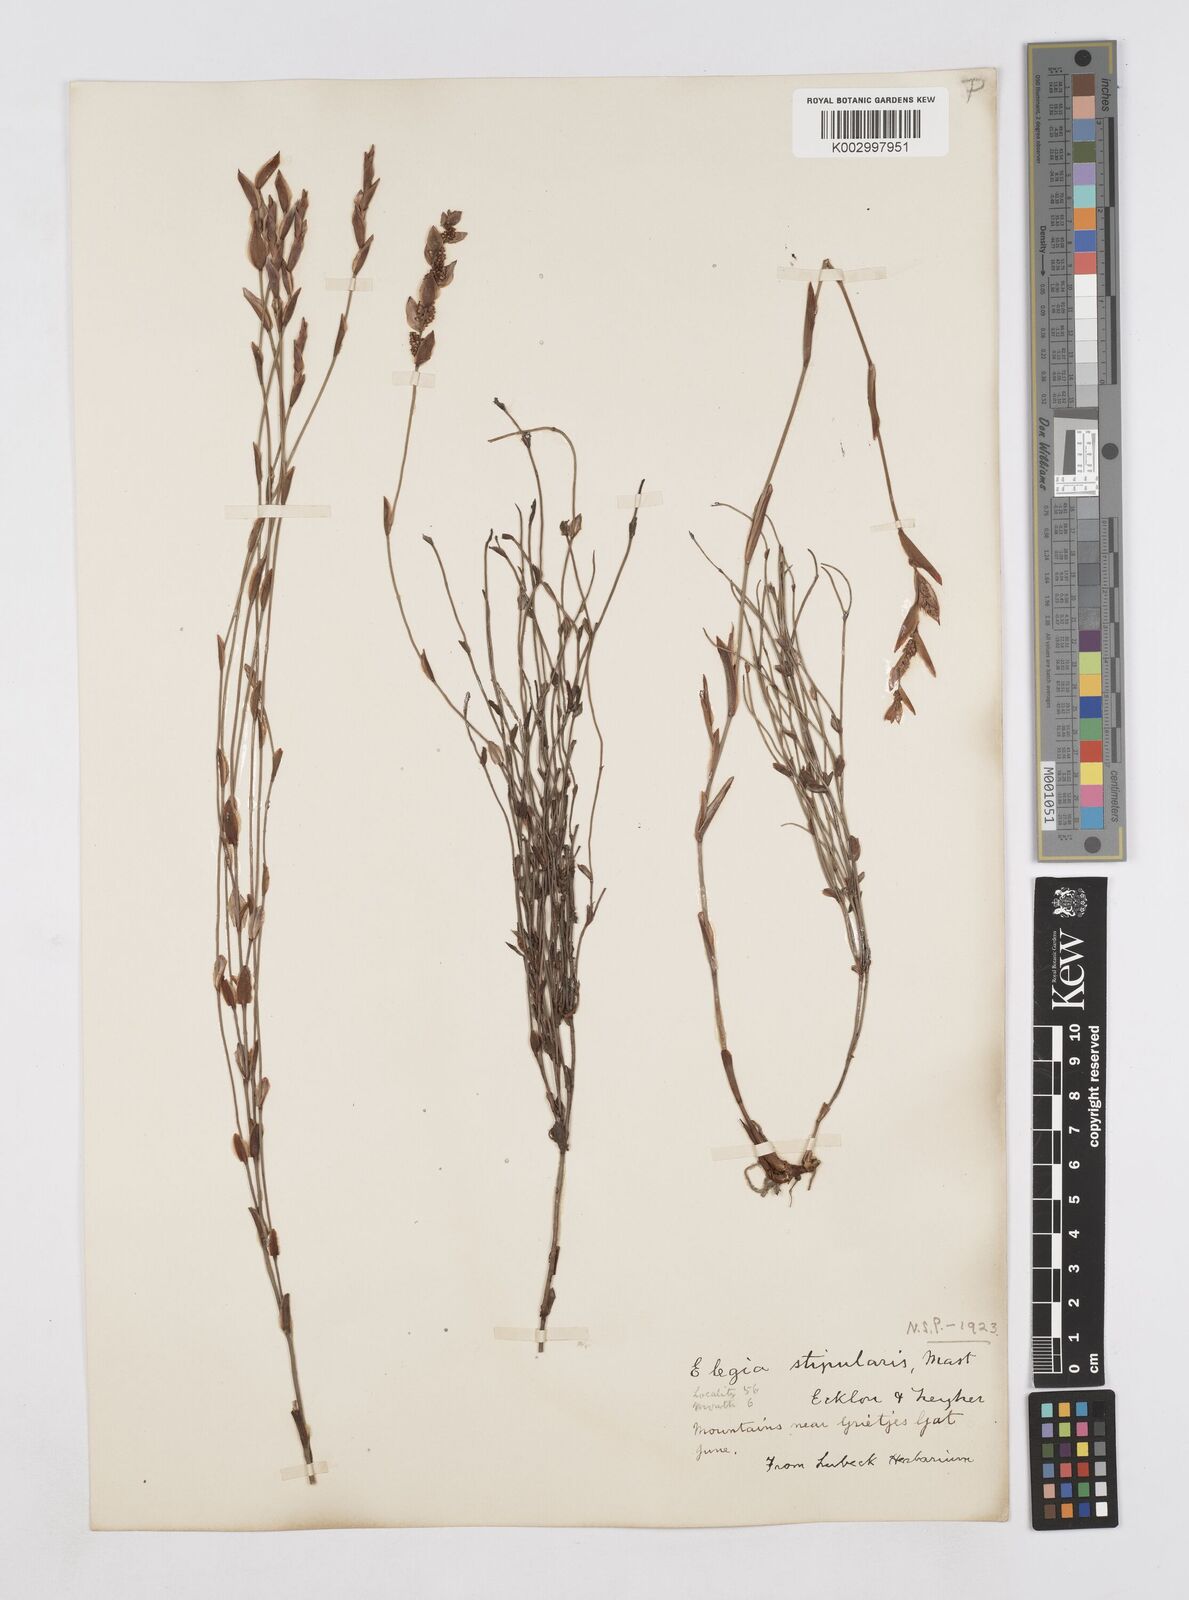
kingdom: Plantae
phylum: Tracheophyta
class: Liliopsida
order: Poales
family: Restionaceae
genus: Elegia
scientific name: Elegia stipularis
